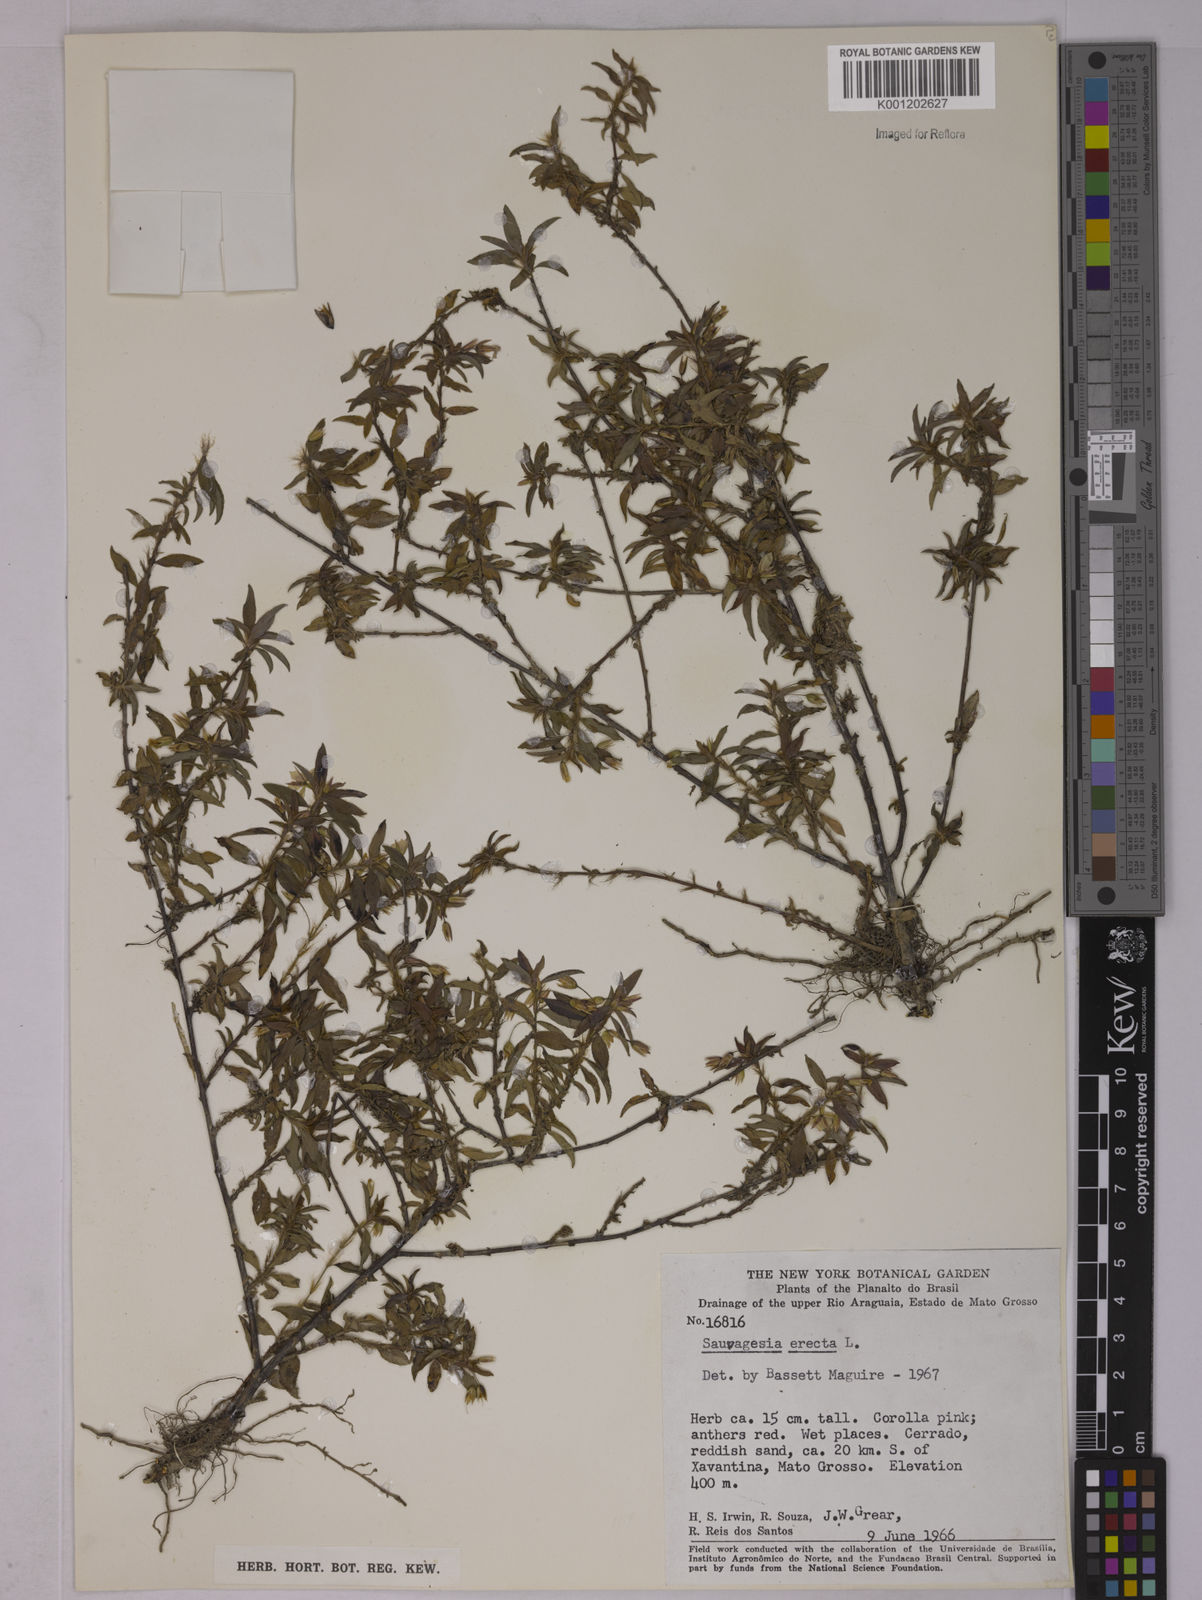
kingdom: Plantae
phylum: Tracheophyta
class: Magnoliopsida
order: Malpighiales
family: Ochnaceae
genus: Sauvagesia
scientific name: Sauvagesia erecta
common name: Creole tea
